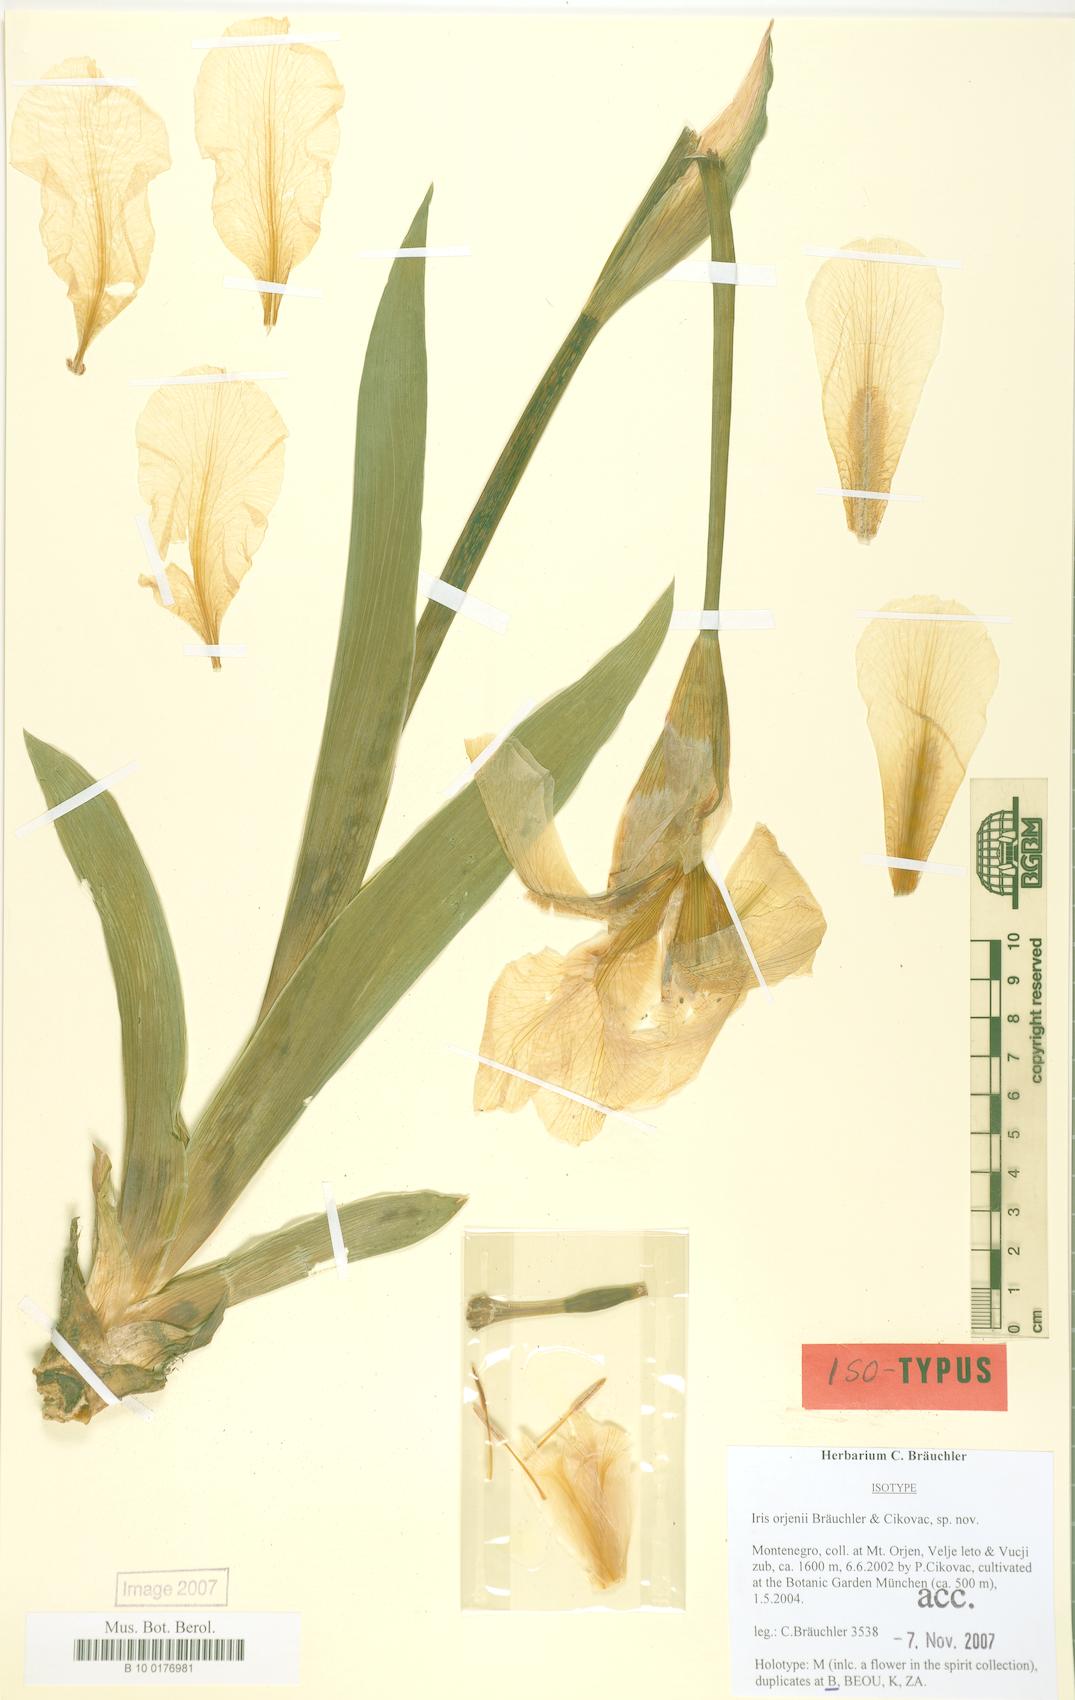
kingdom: Plantae
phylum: Tracheophyta
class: Liliopsida
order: Asparagales
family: Iridaceae
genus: Iris
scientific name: Iris orjenii
